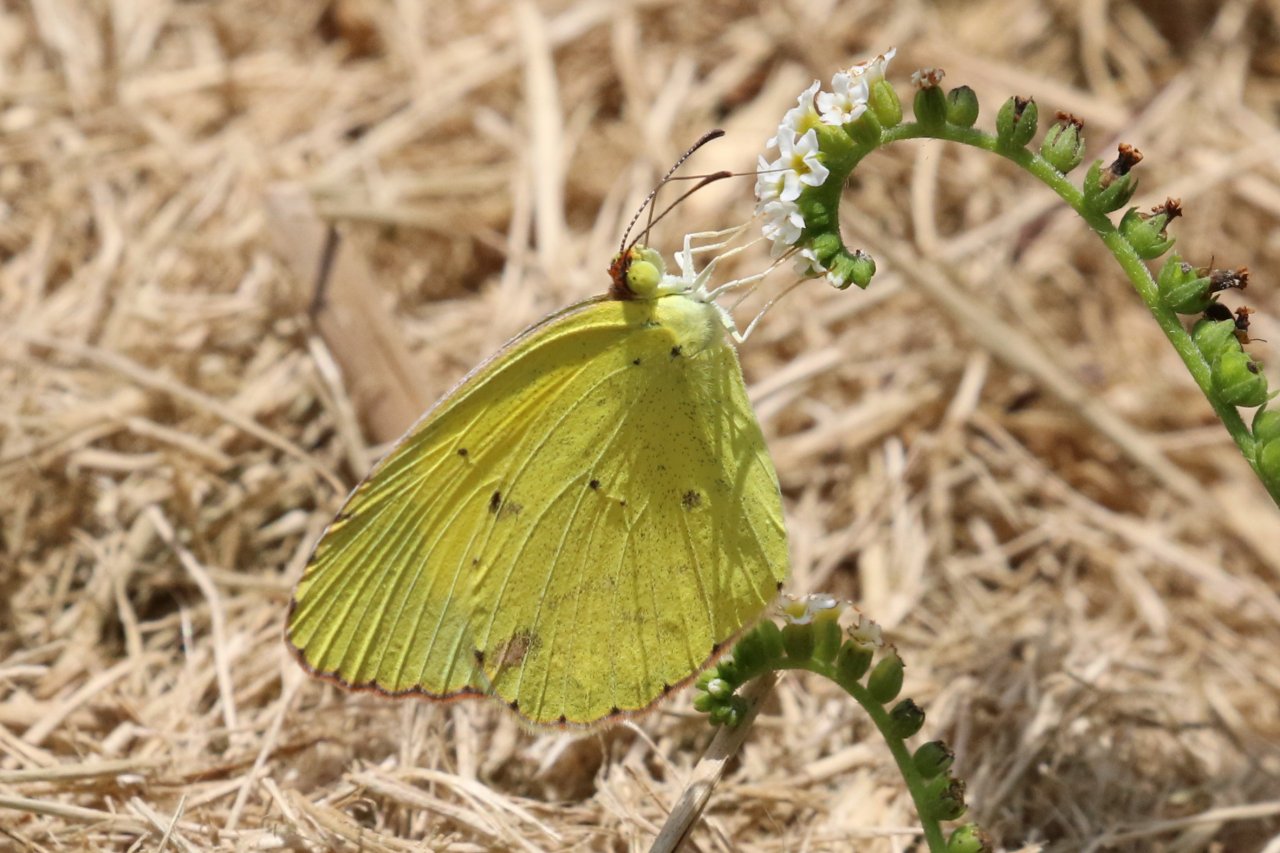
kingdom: Animalia
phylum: Arthropoda
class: Insecta
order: Lepidoptera
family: Pieridae
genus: Pyrisitia
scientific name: Pyrisitia lisa
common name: Little Yellow
